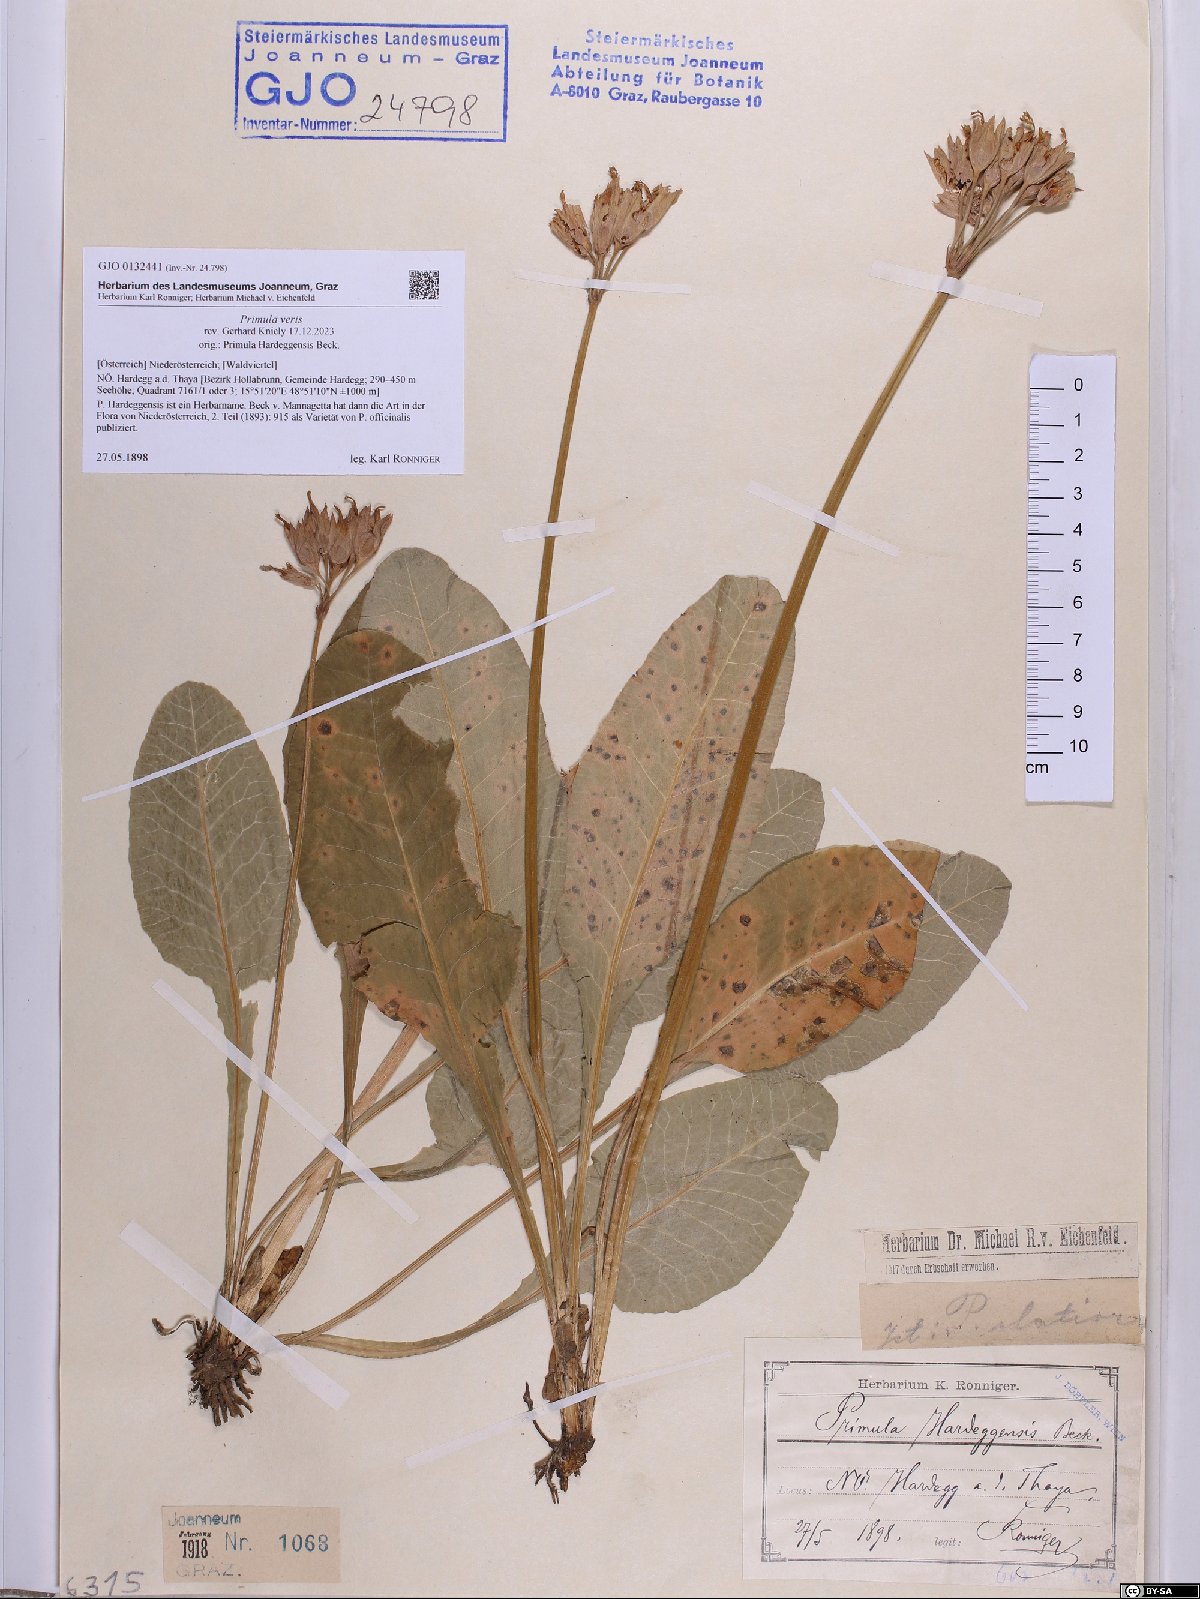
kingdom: Plantae
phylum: Tracheophyta
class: Magnoliopsida
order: Ericales
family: Primulaceae
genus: Primula
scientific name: Primula veris
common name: Cowslip
